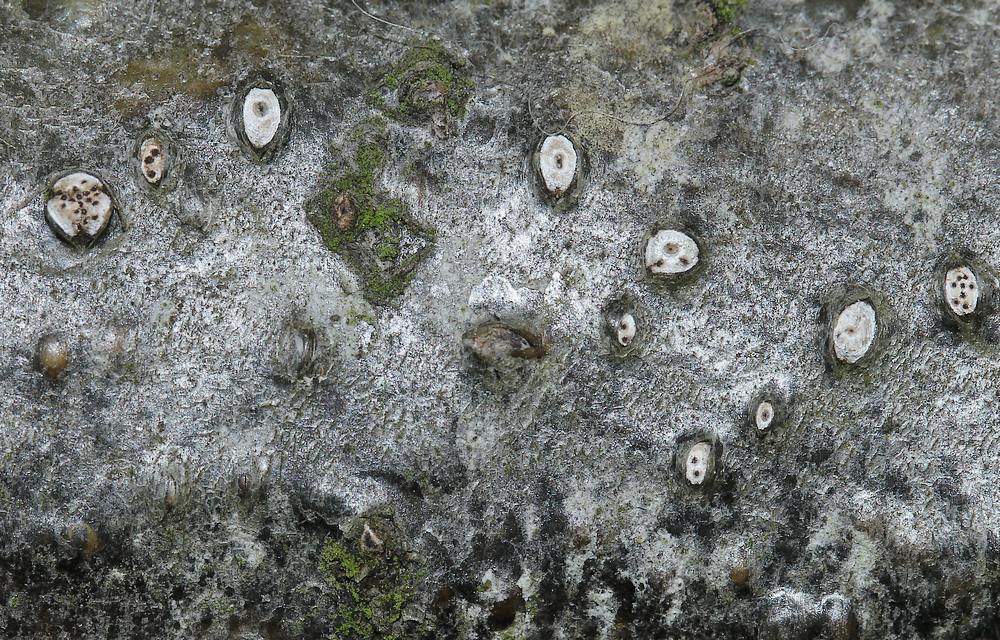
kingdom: Fungi
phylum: Ascomycota
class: Sordariomycetes
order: Diaporthales
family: Valsaceae
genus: Cytospora
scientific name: Cytospora leucostoma
